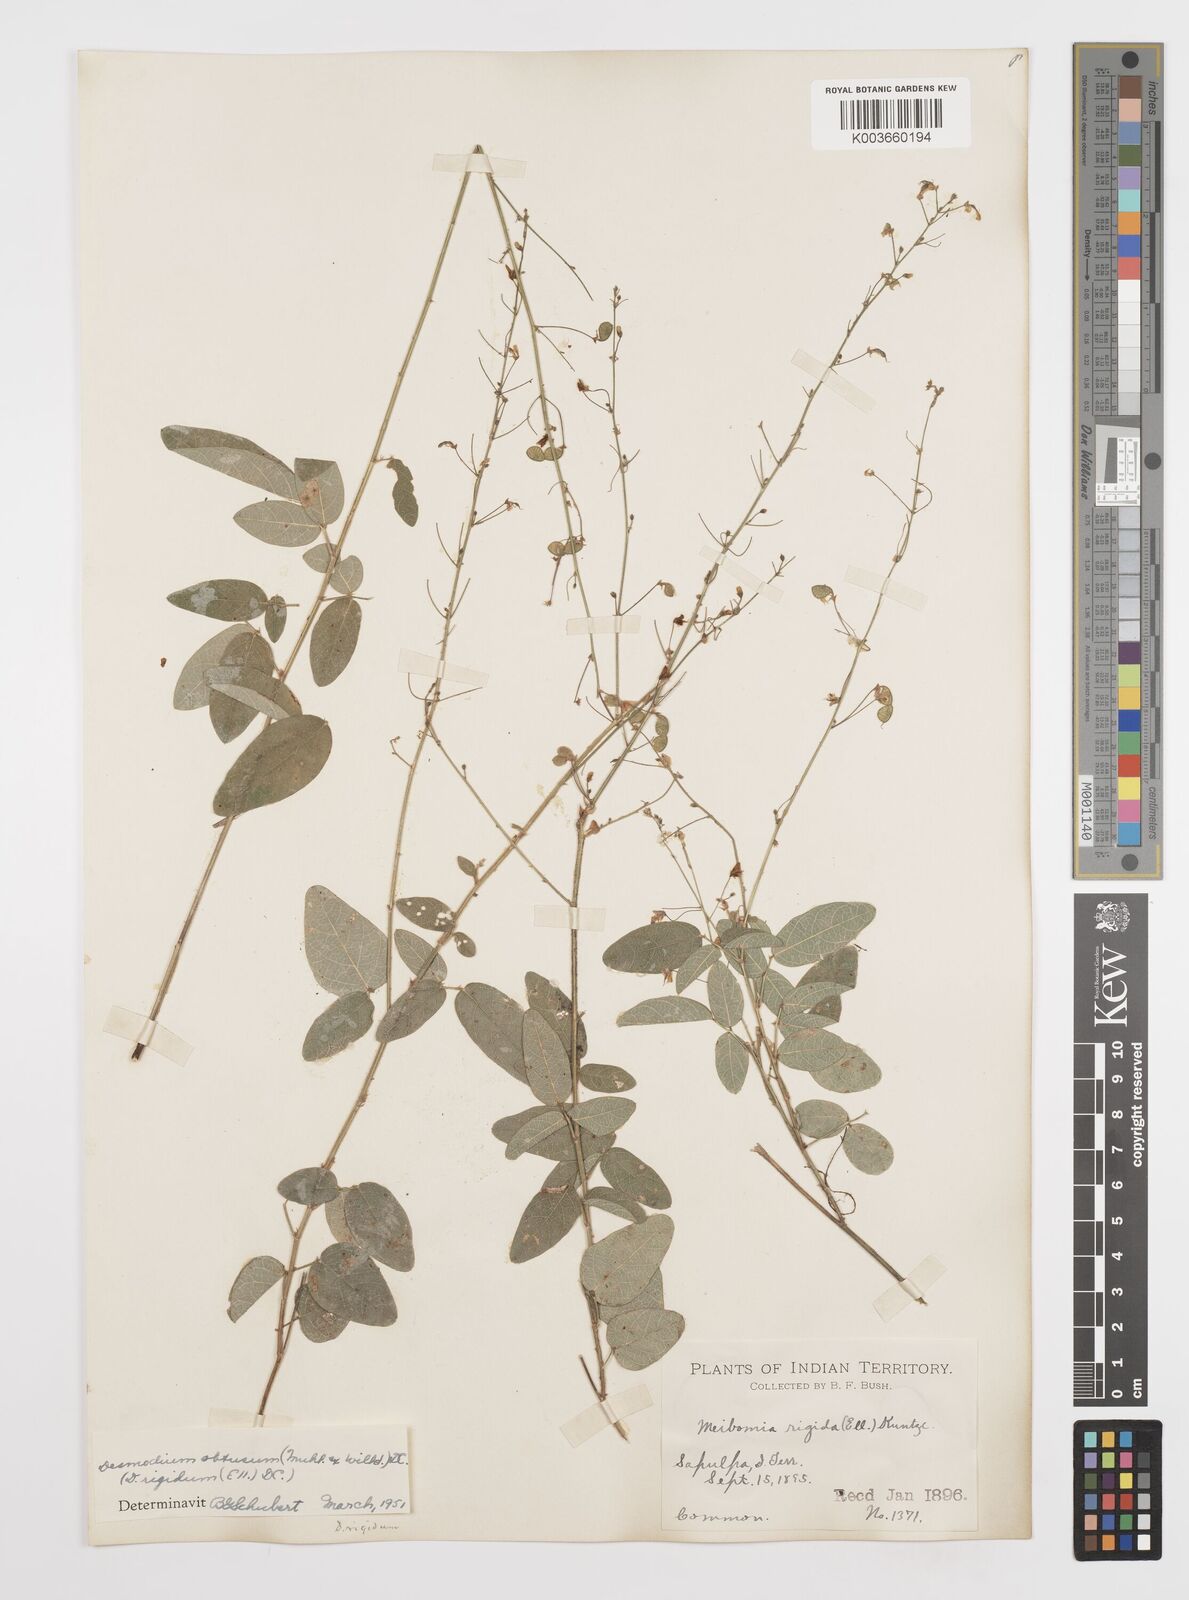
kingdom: Plantae
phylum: Tracheophyta
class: Magnoliopsida
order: Fabales
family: Fabaceae
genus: Desmodium
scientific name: Desmodium obtusum
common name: Stiff tick trefoil
